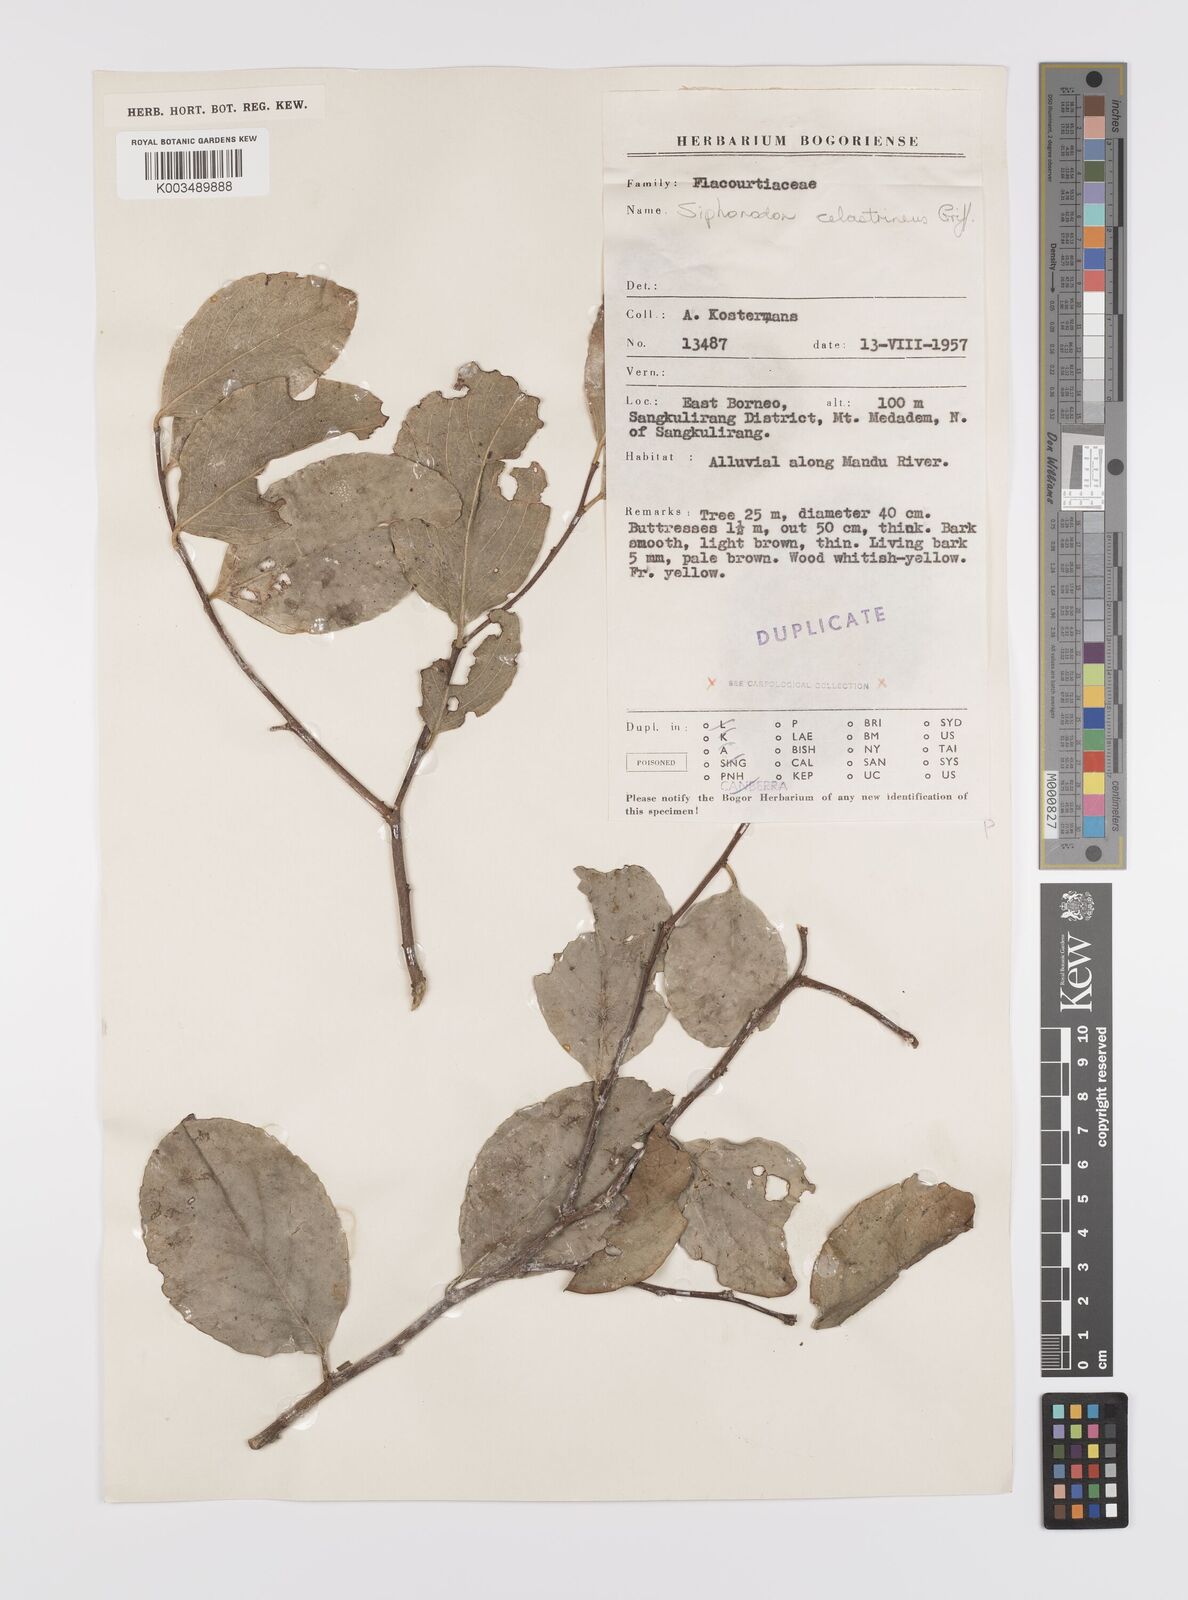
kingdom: Plantae
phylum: Tracheophyta
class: Magnoliopsida
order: Celastrales
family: Celastraceae
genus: Siphonodon
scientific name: Siphonodon celastrineus
